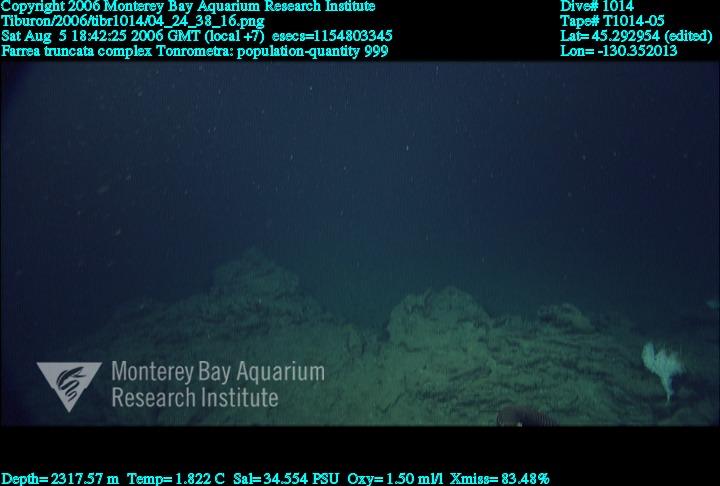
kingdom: Animalia
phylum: Porifera
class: Hexactinellida
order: Sceptrulophora
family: Farreidae
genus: Farrea
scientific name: Farrea truncata
